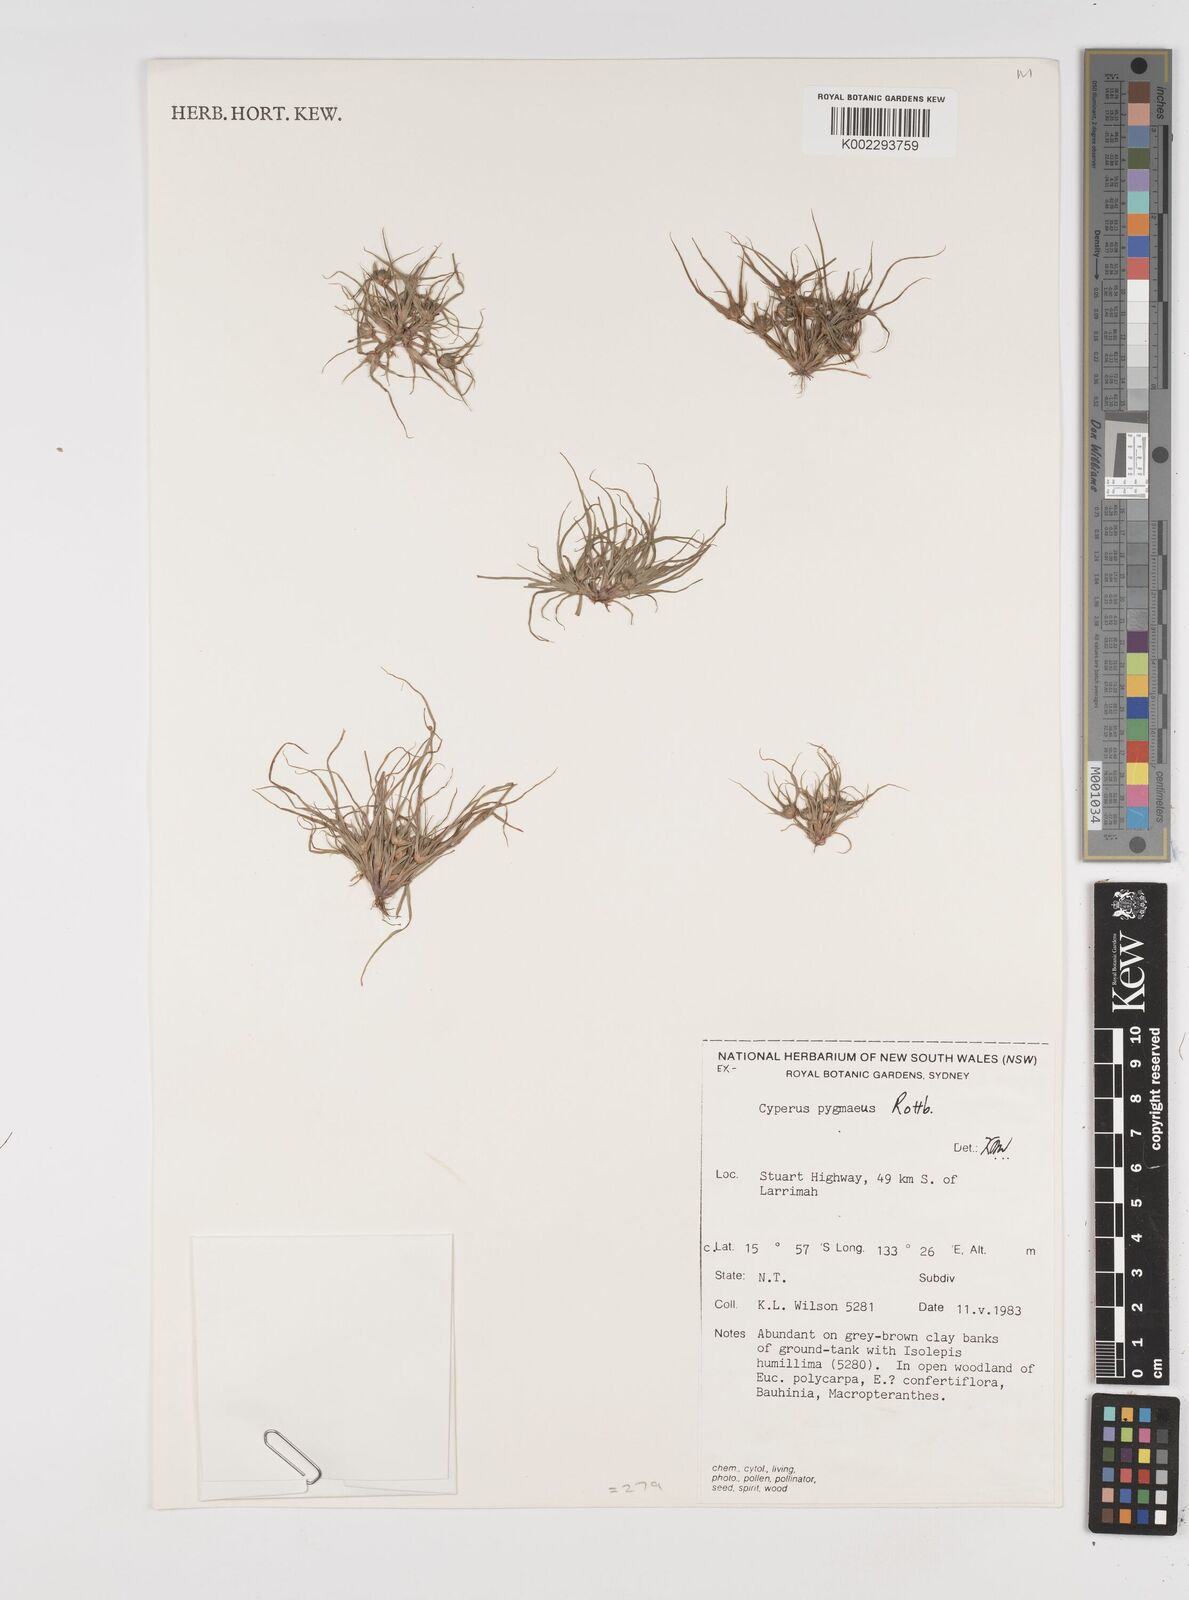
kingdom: Plantae
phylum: Tracheophyta
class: Liliopsida
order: Poales
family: Cyperaceae
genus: Cyperus
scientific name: Cyperus michelianus
